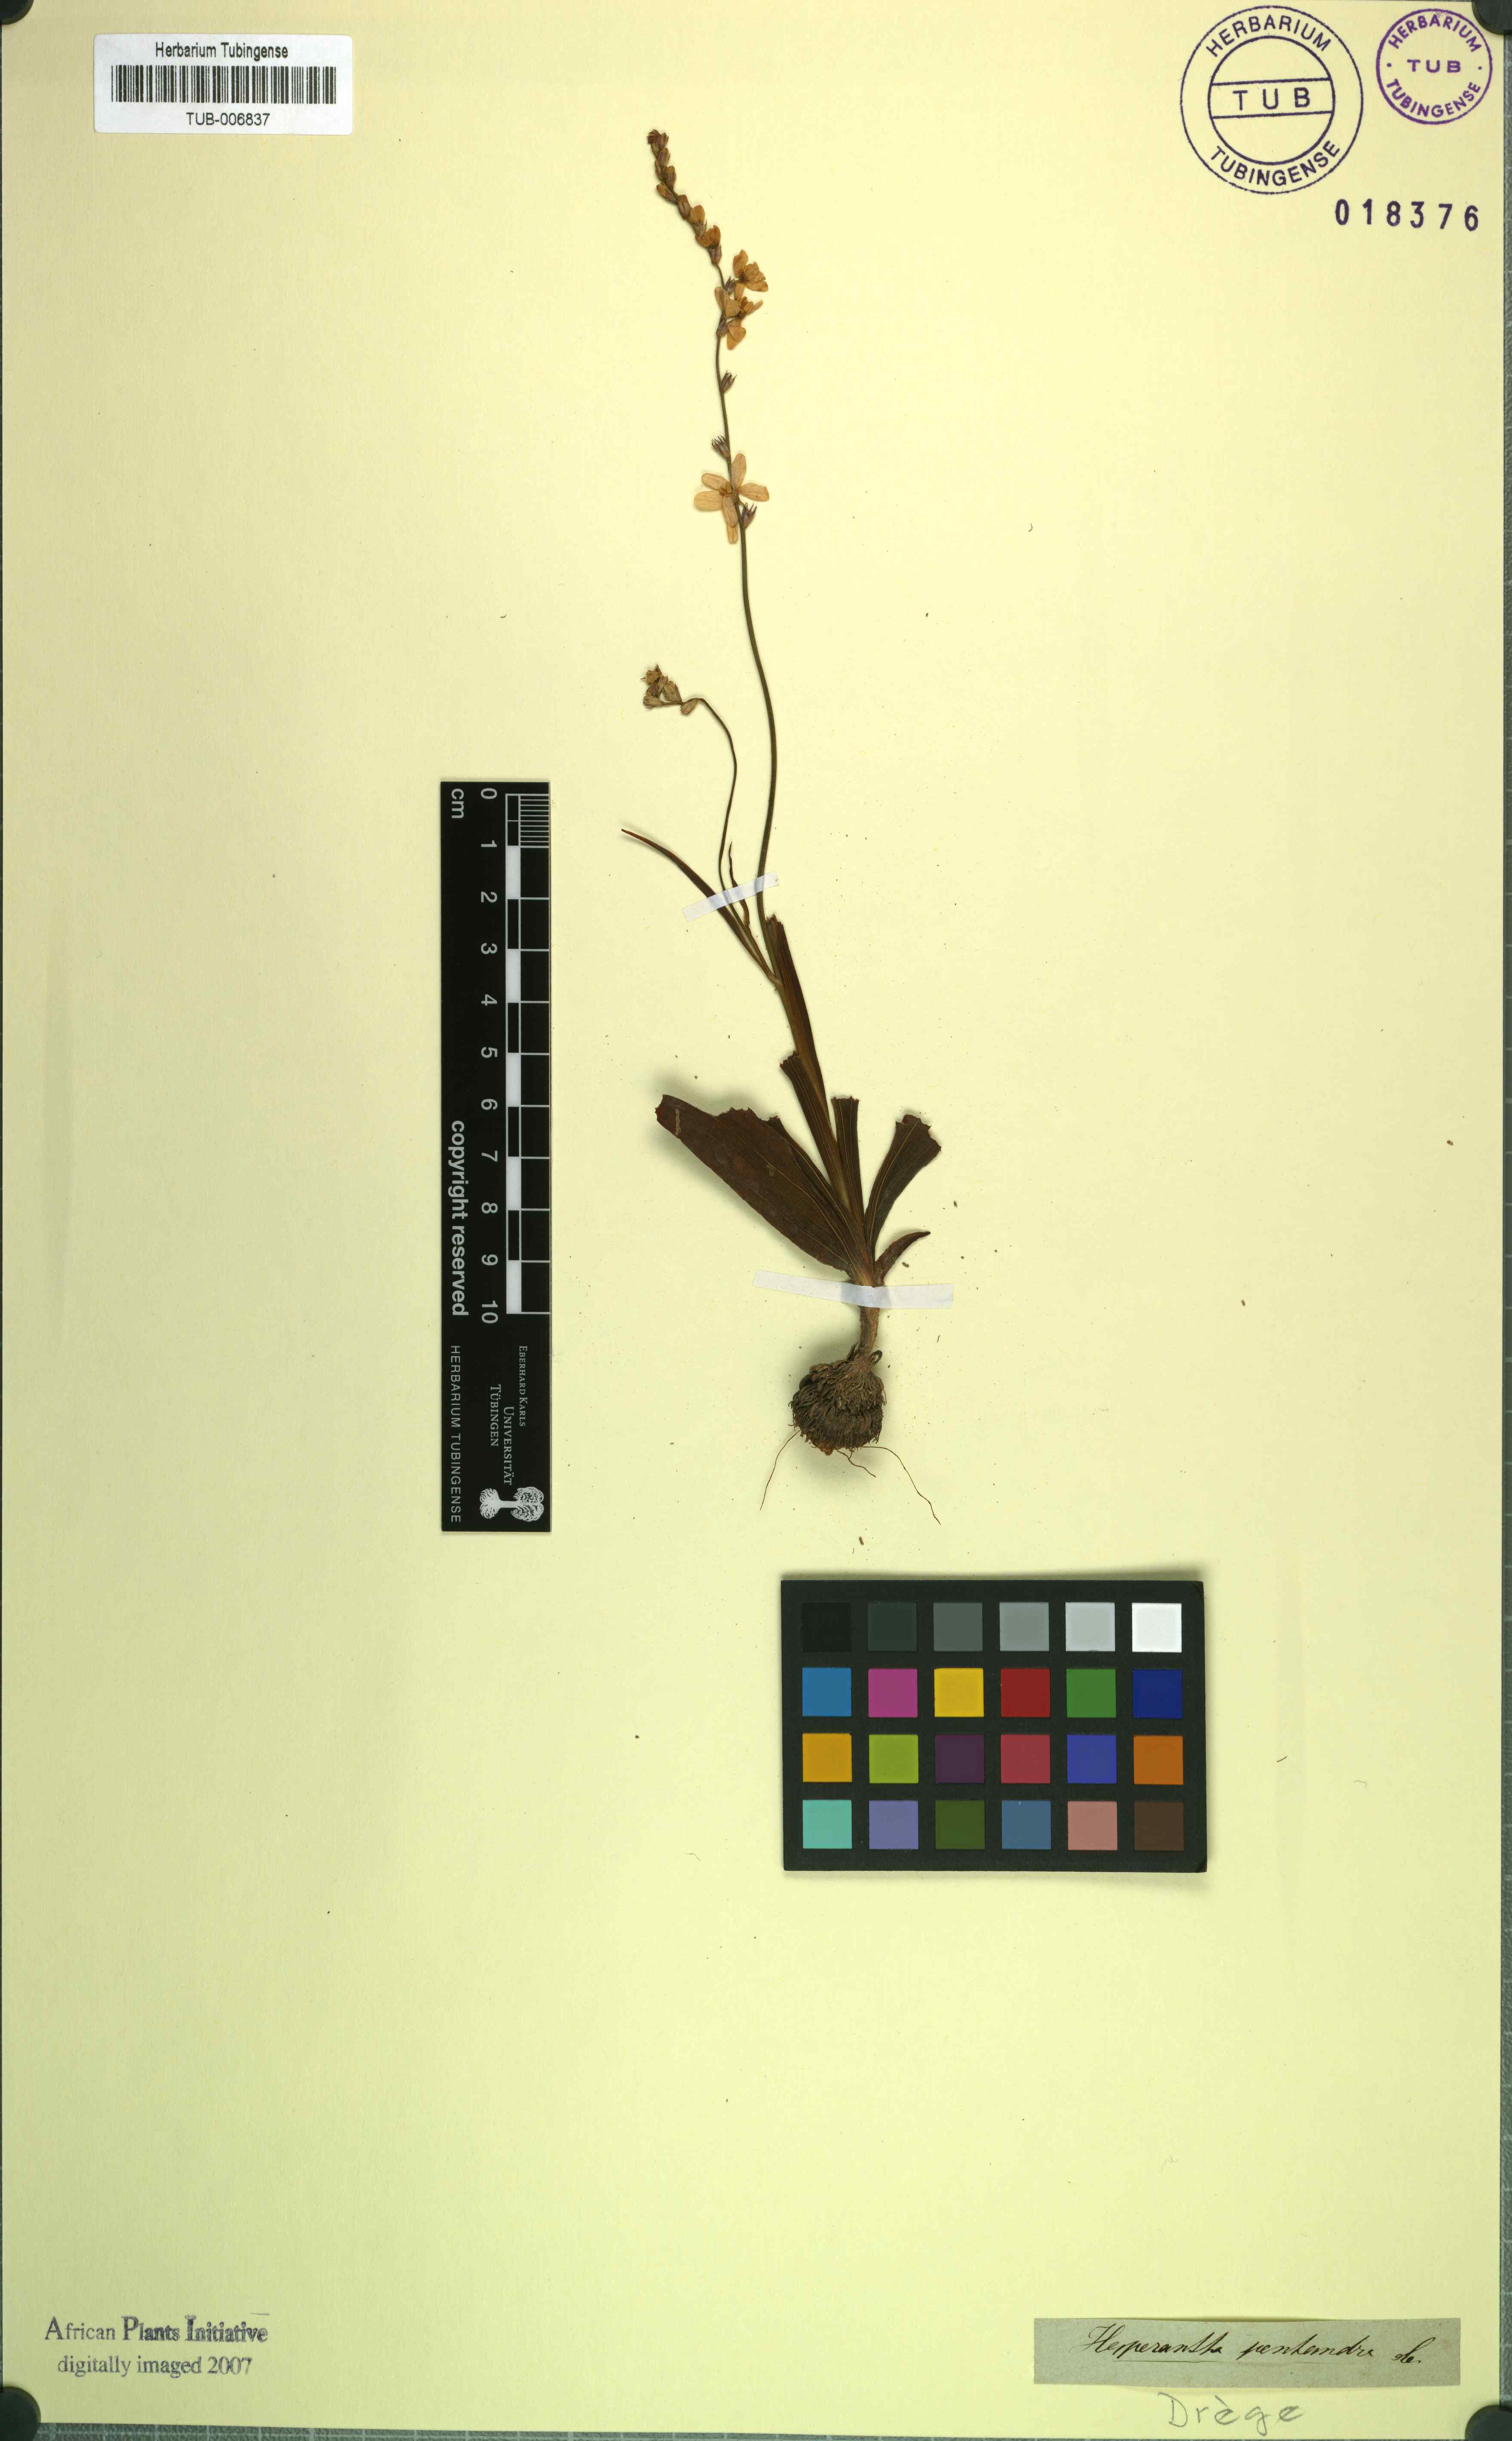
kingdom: Plantae
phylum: Tracheophyta
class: Liliopsida
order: Asparagales
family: Iridaceae
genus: Ixia
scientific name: Ixia scillaris
